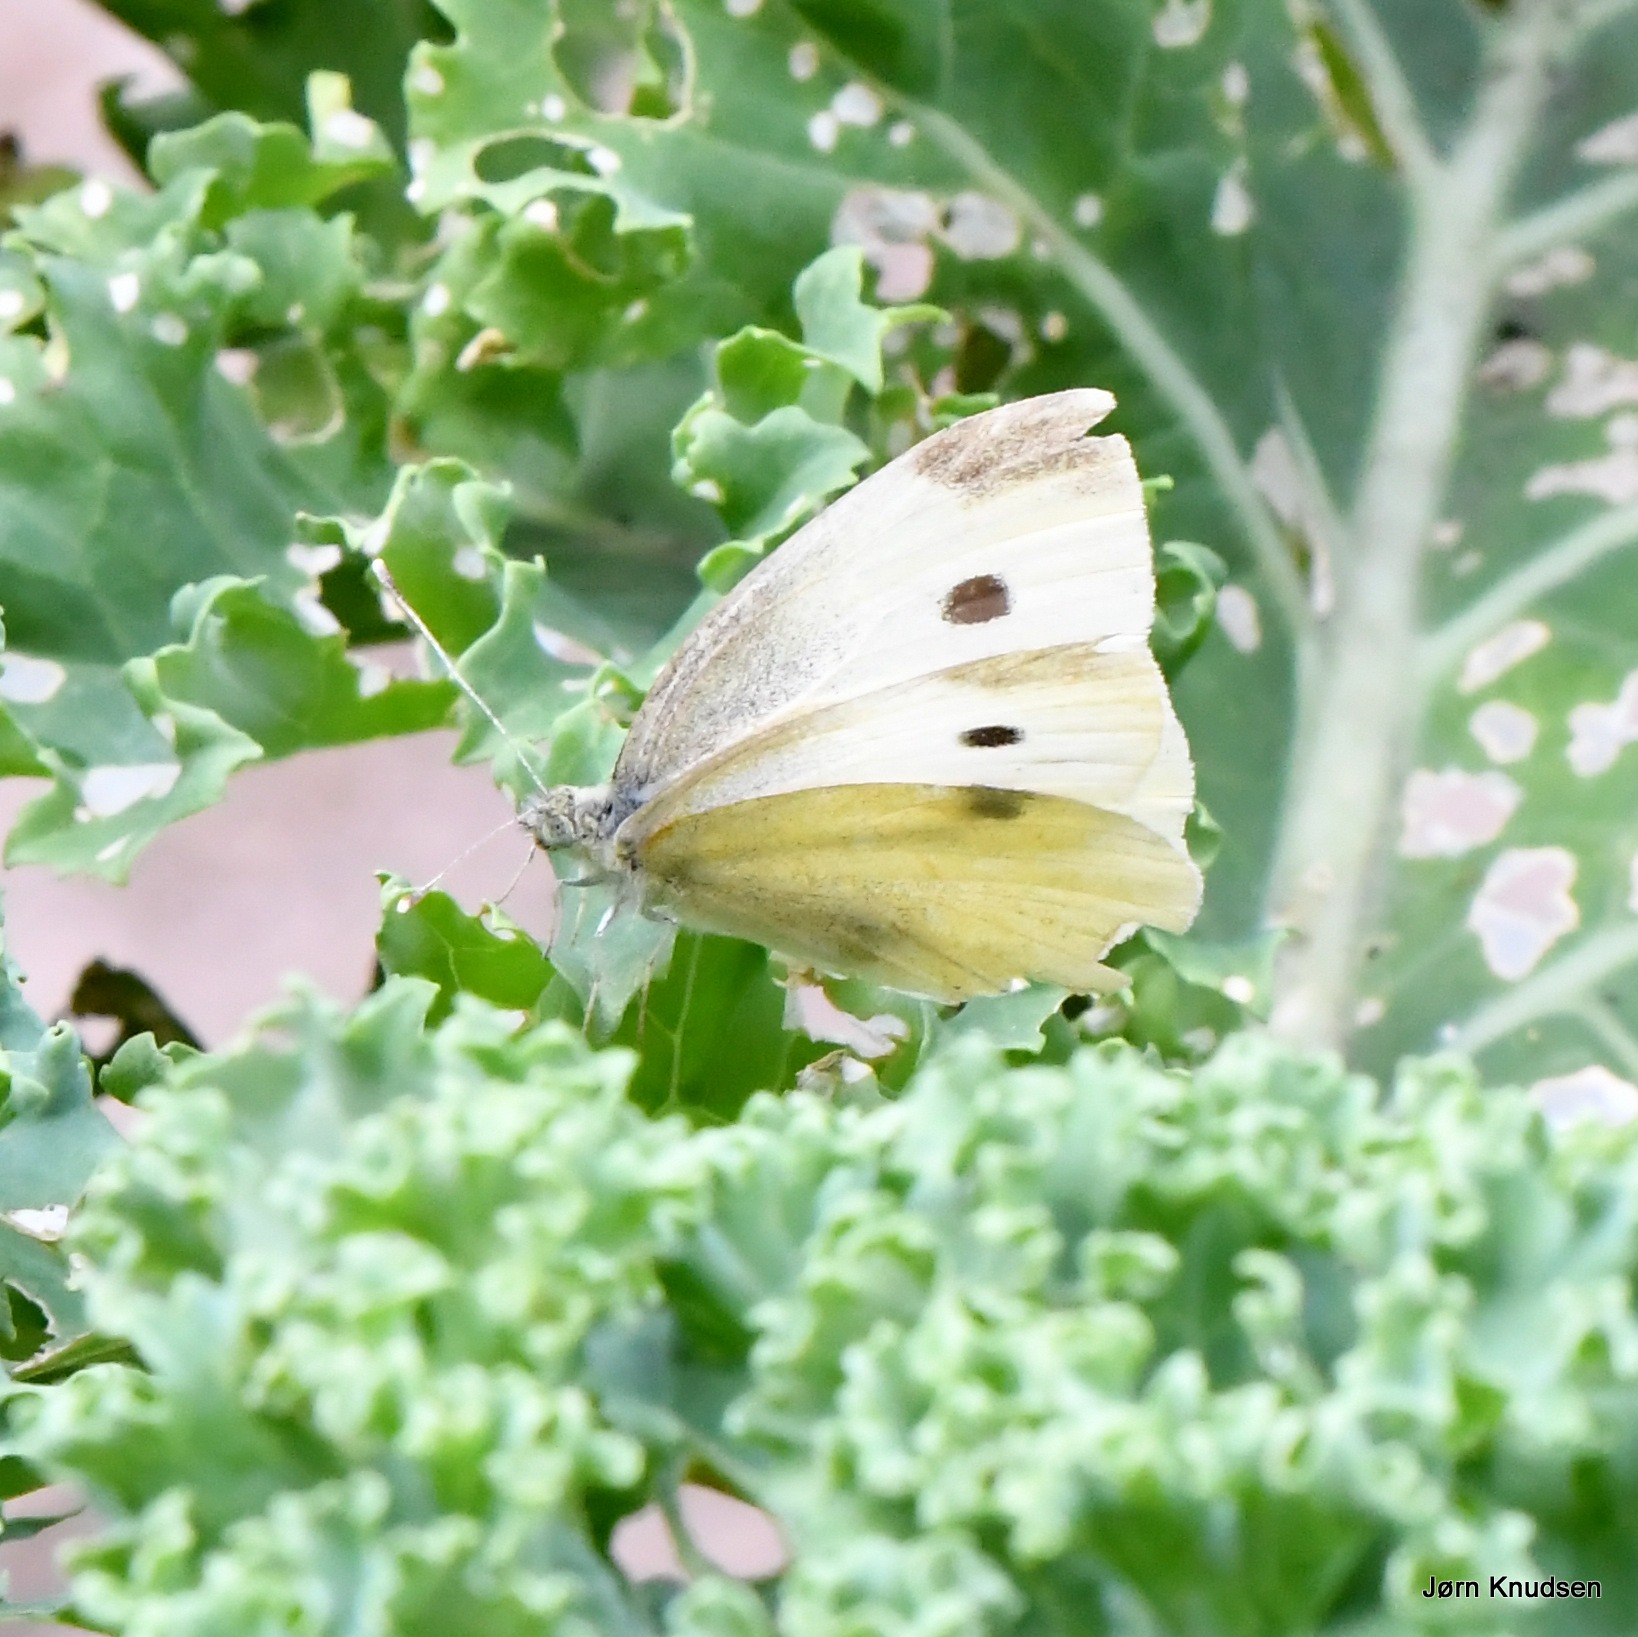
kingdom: Animalia
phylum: Arthropoda
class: Insecta
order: Lepidoptera
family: Pieridae
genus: Pieris
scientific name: Pieris rapae
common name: Lille kålsommerfugl
